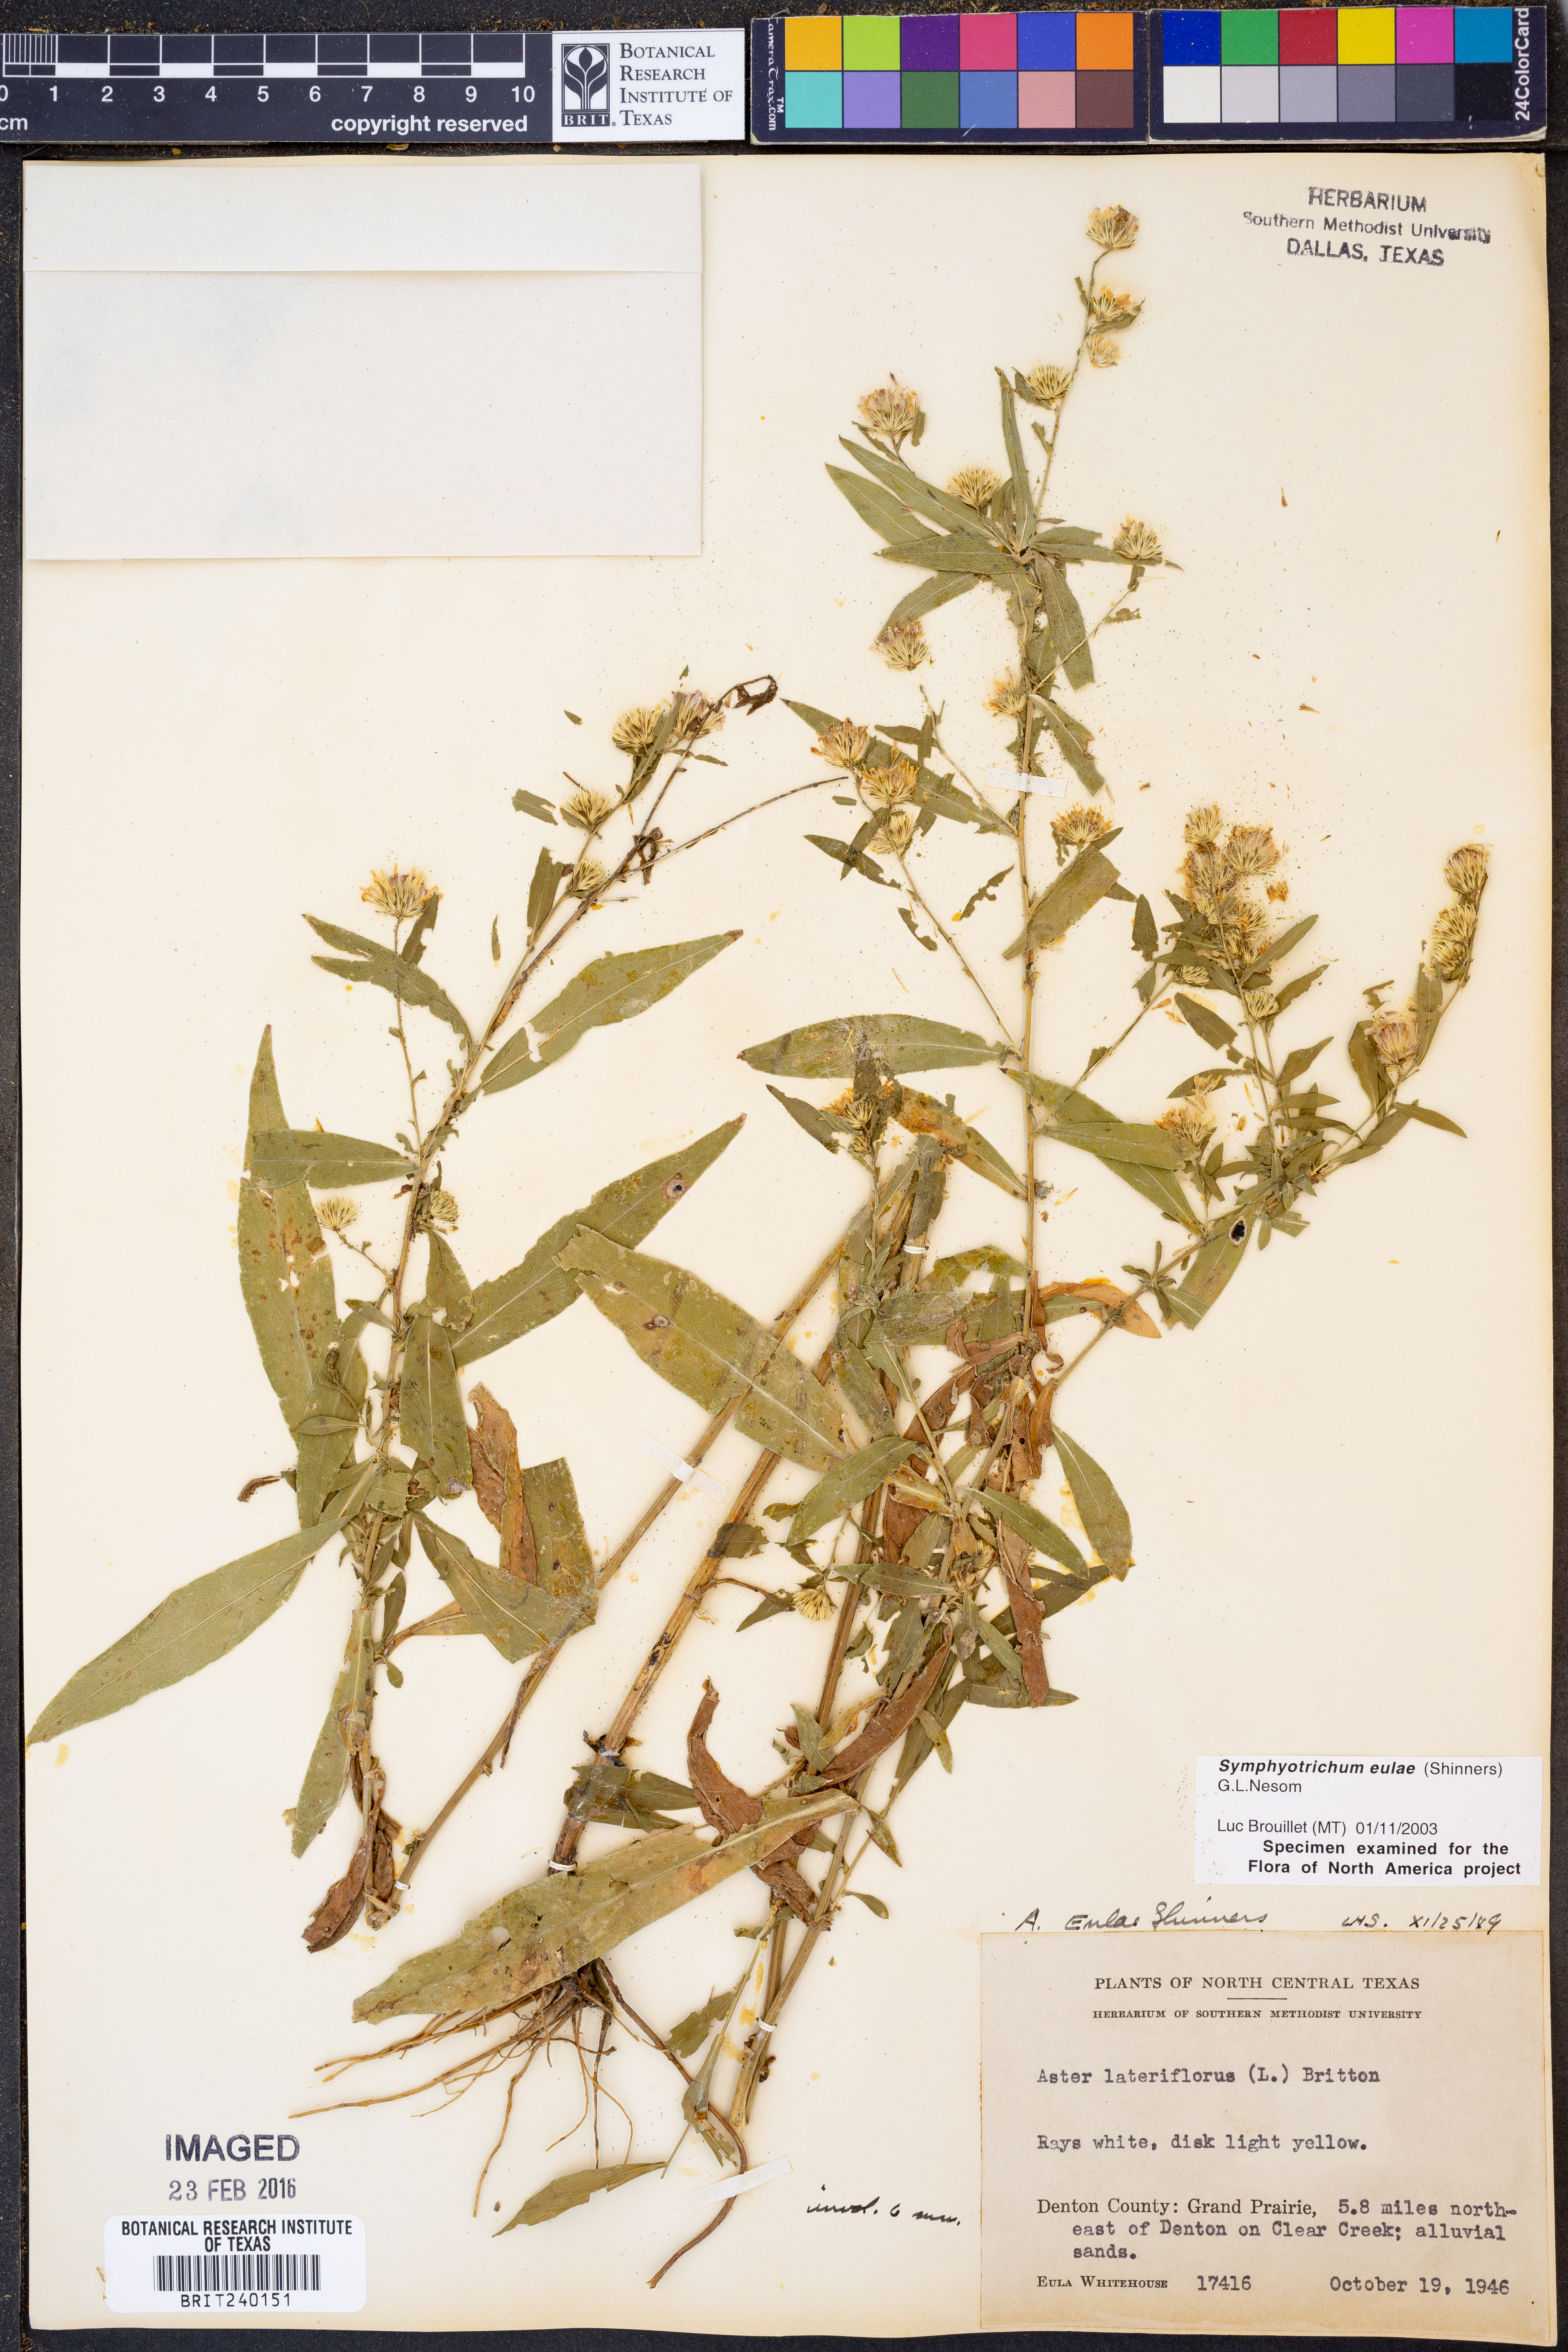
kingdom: Plantae
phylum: Tracheophyta
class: Magnoliopsida
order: Asterales
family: Asteraceae
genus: Symphyotrichum
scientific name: Symphyotrichum eulae
